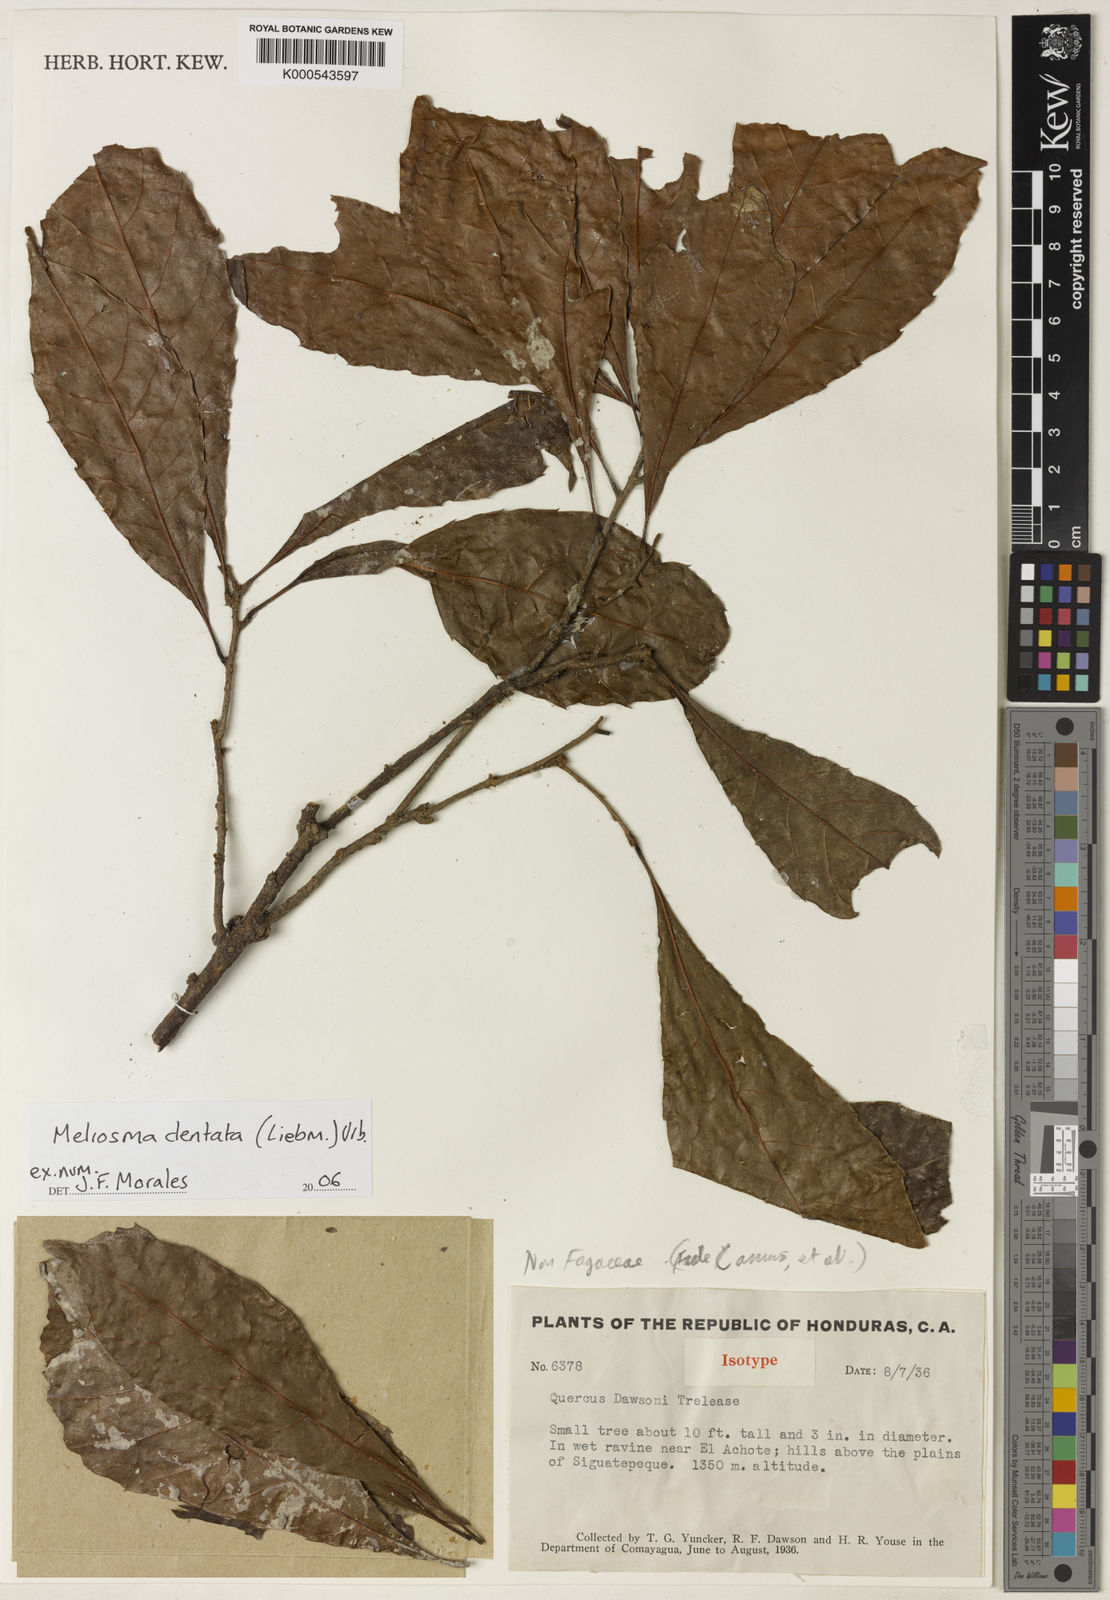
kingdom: Plantae
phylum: Tracheophyta
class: Magnoliopsida
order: Proteales
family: Sabiaceae
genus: Meliosma
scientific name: Meliosma dentata
